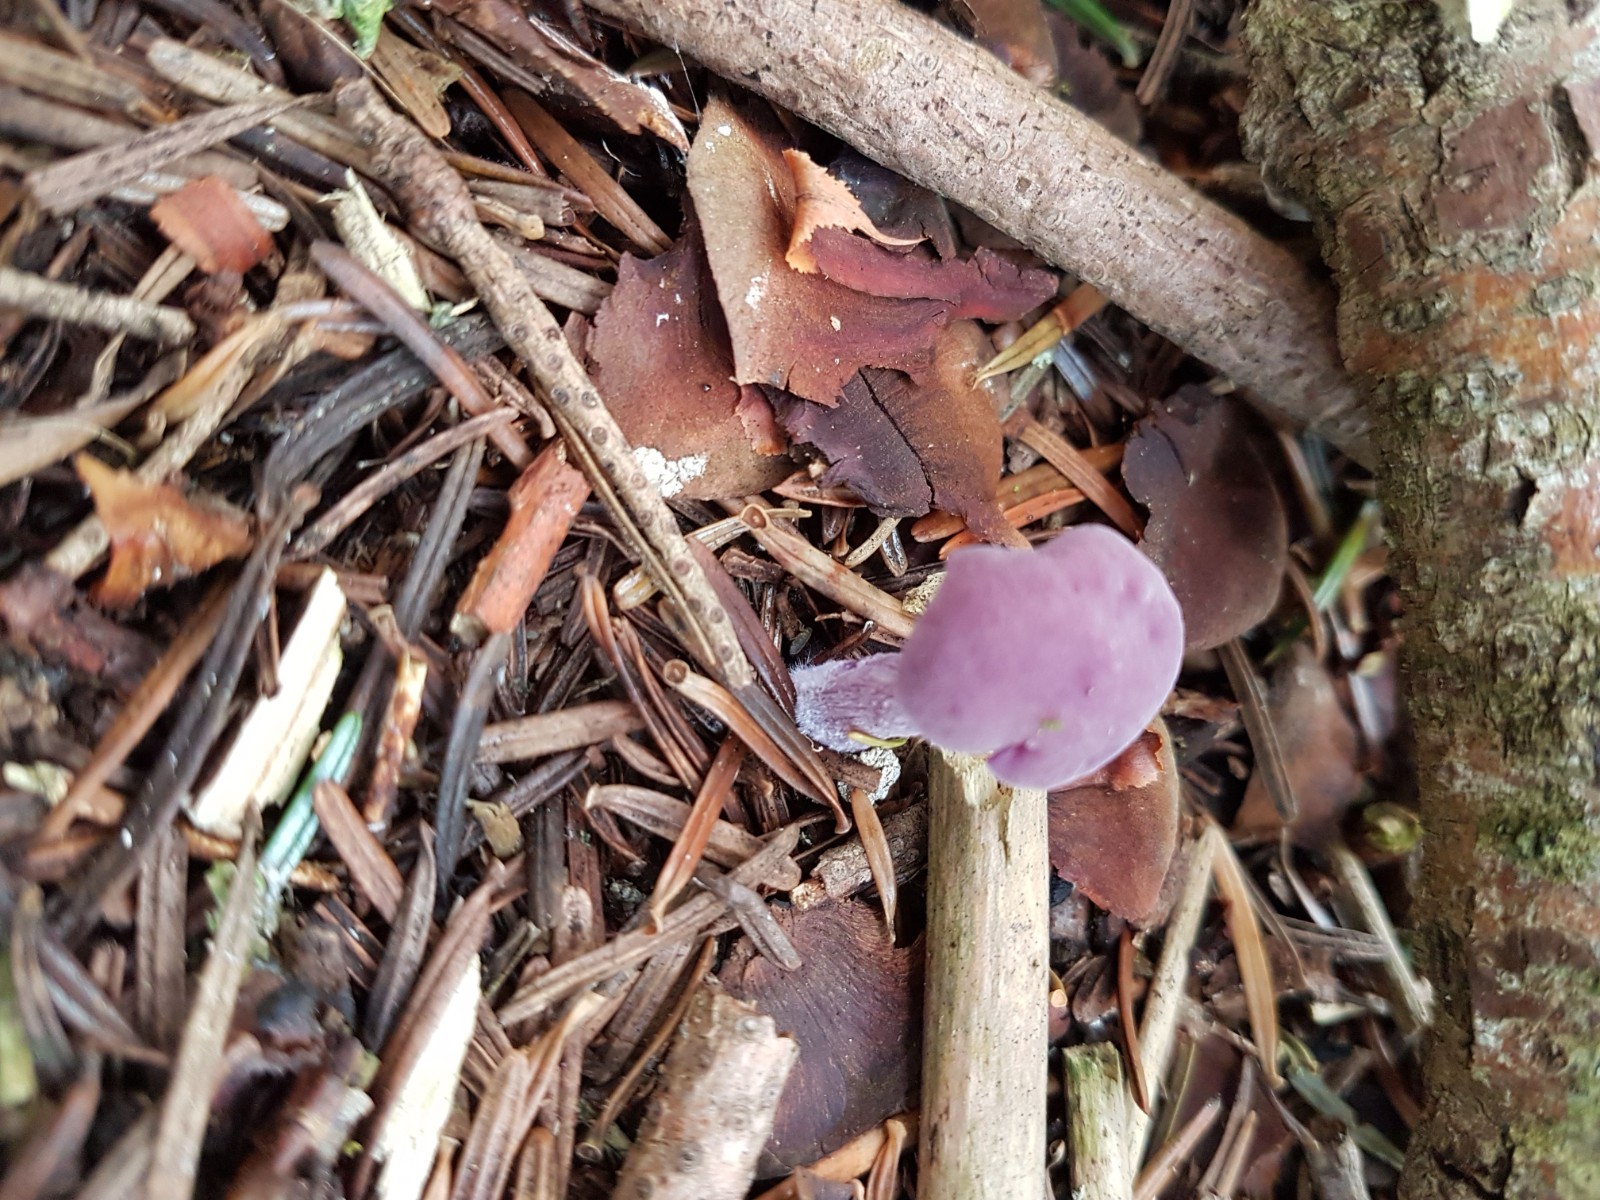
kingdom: Fungi
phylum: Basidiomycota
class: Agaricomycetes
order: Agaricales
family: Hydnangiaceae
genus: Laccaria
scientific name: Laccaria amethystina
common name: violet ametysthat
